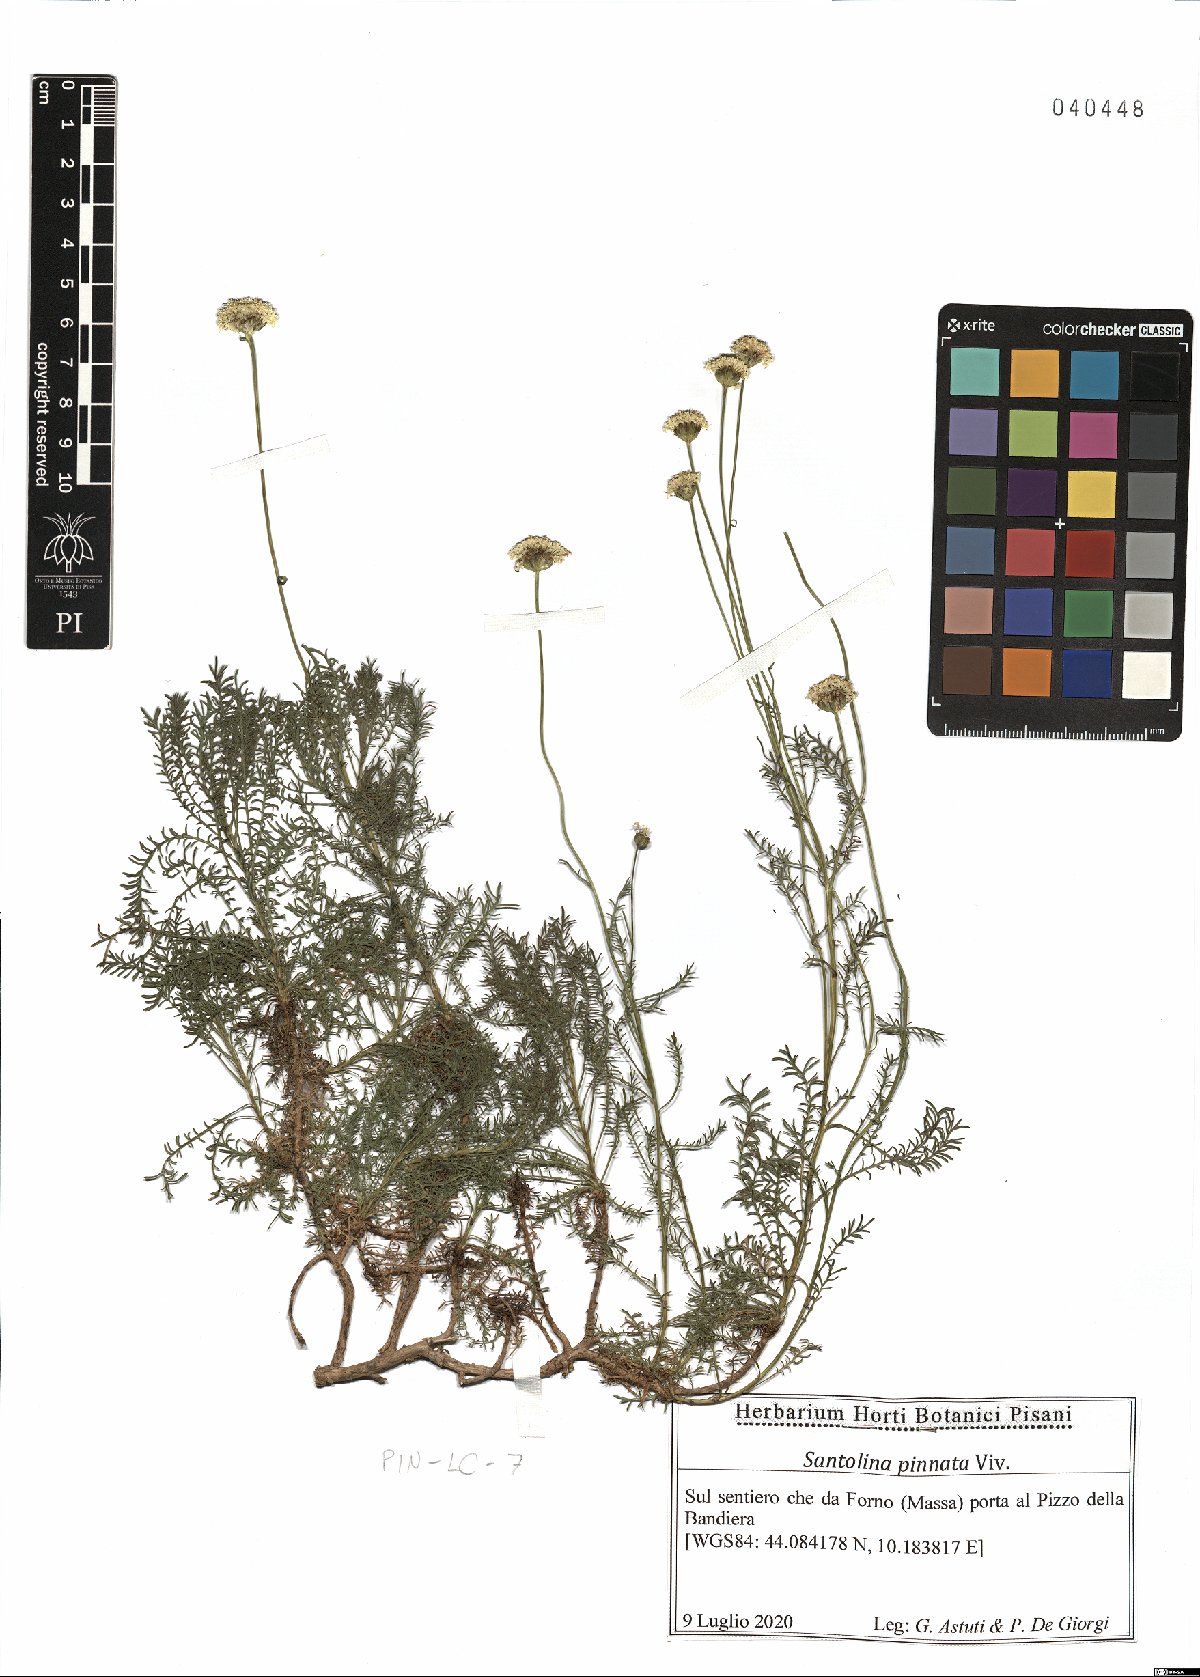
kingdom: Plantae
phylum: Tracheophyta
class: Magnoliopsida
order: Asterales
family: Asteraceae
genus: Santolina
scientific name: Santolina pinnata
